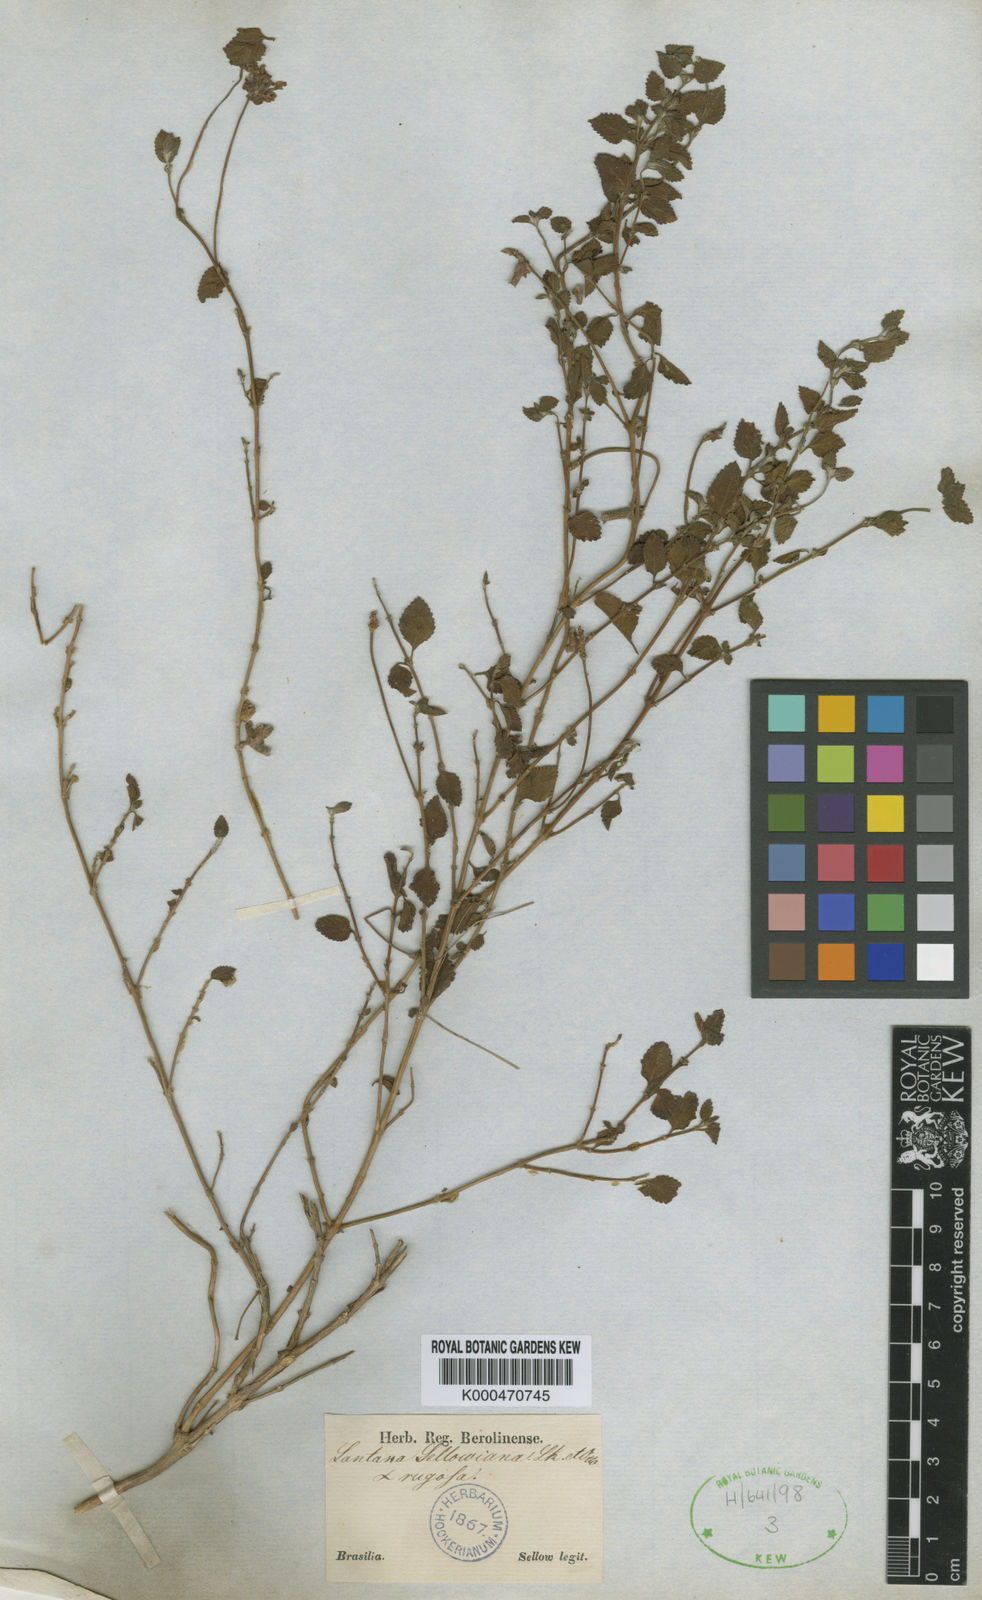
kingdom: Plantae
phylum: Tracheophyta
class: Magnoliopsida
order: Lamiales
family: Verbenaceae
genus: Lantana
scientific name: Lantana montevidensis
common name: Trailing shrubverbena
